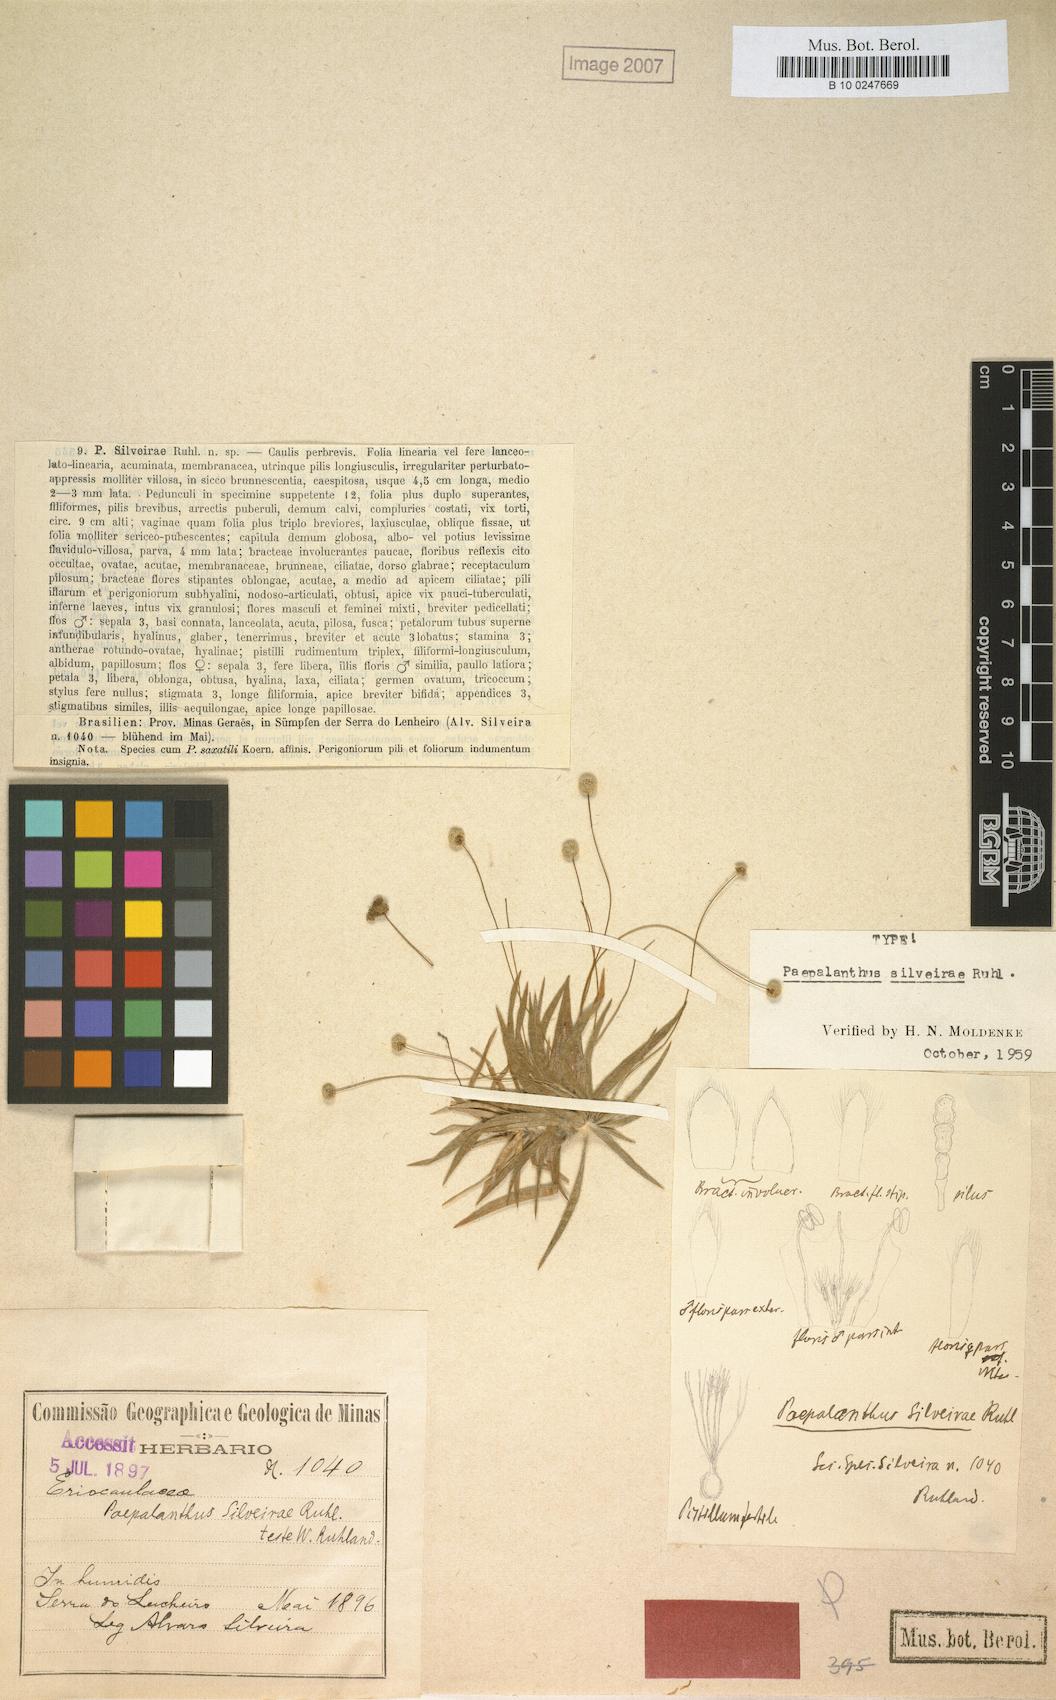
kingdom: Plantae
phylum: Tracheophyta
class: Liliopsida
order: Poales
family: Eriocaulaceae
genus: Paepalanthus
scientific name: Paepalanthus silveirae
